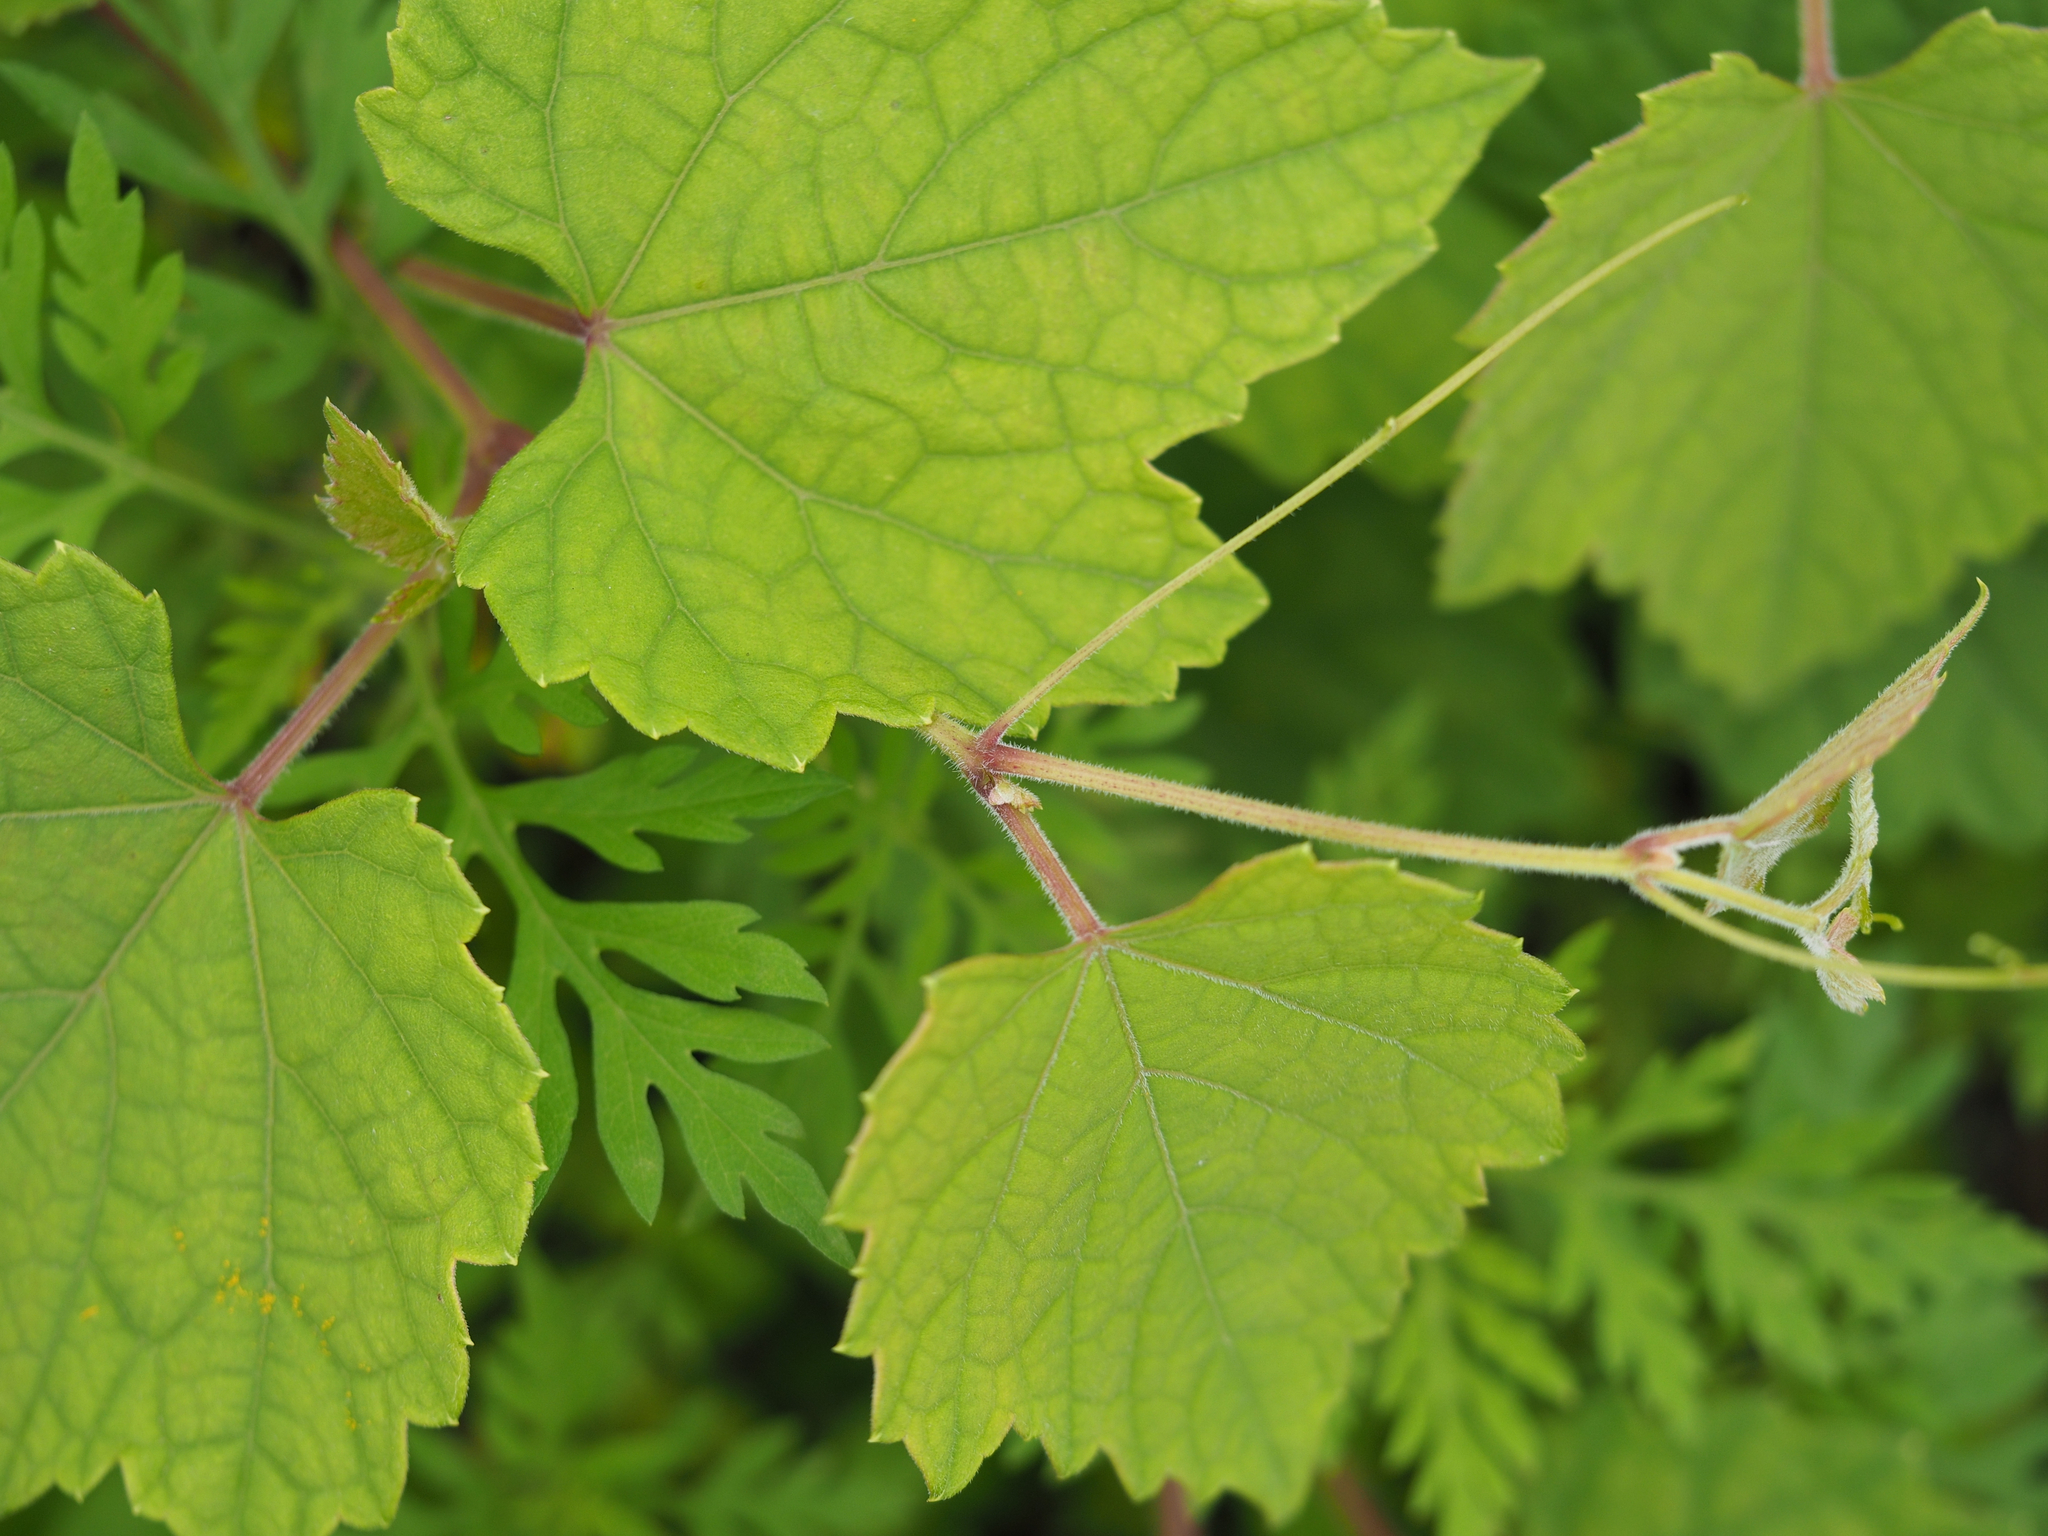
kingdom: Plantae
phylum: Tracheophyta
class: Magnoliopsida
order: Vitales
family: Vitaceae
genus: Ampelopsis
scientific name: Ampelopsis glandulosa
